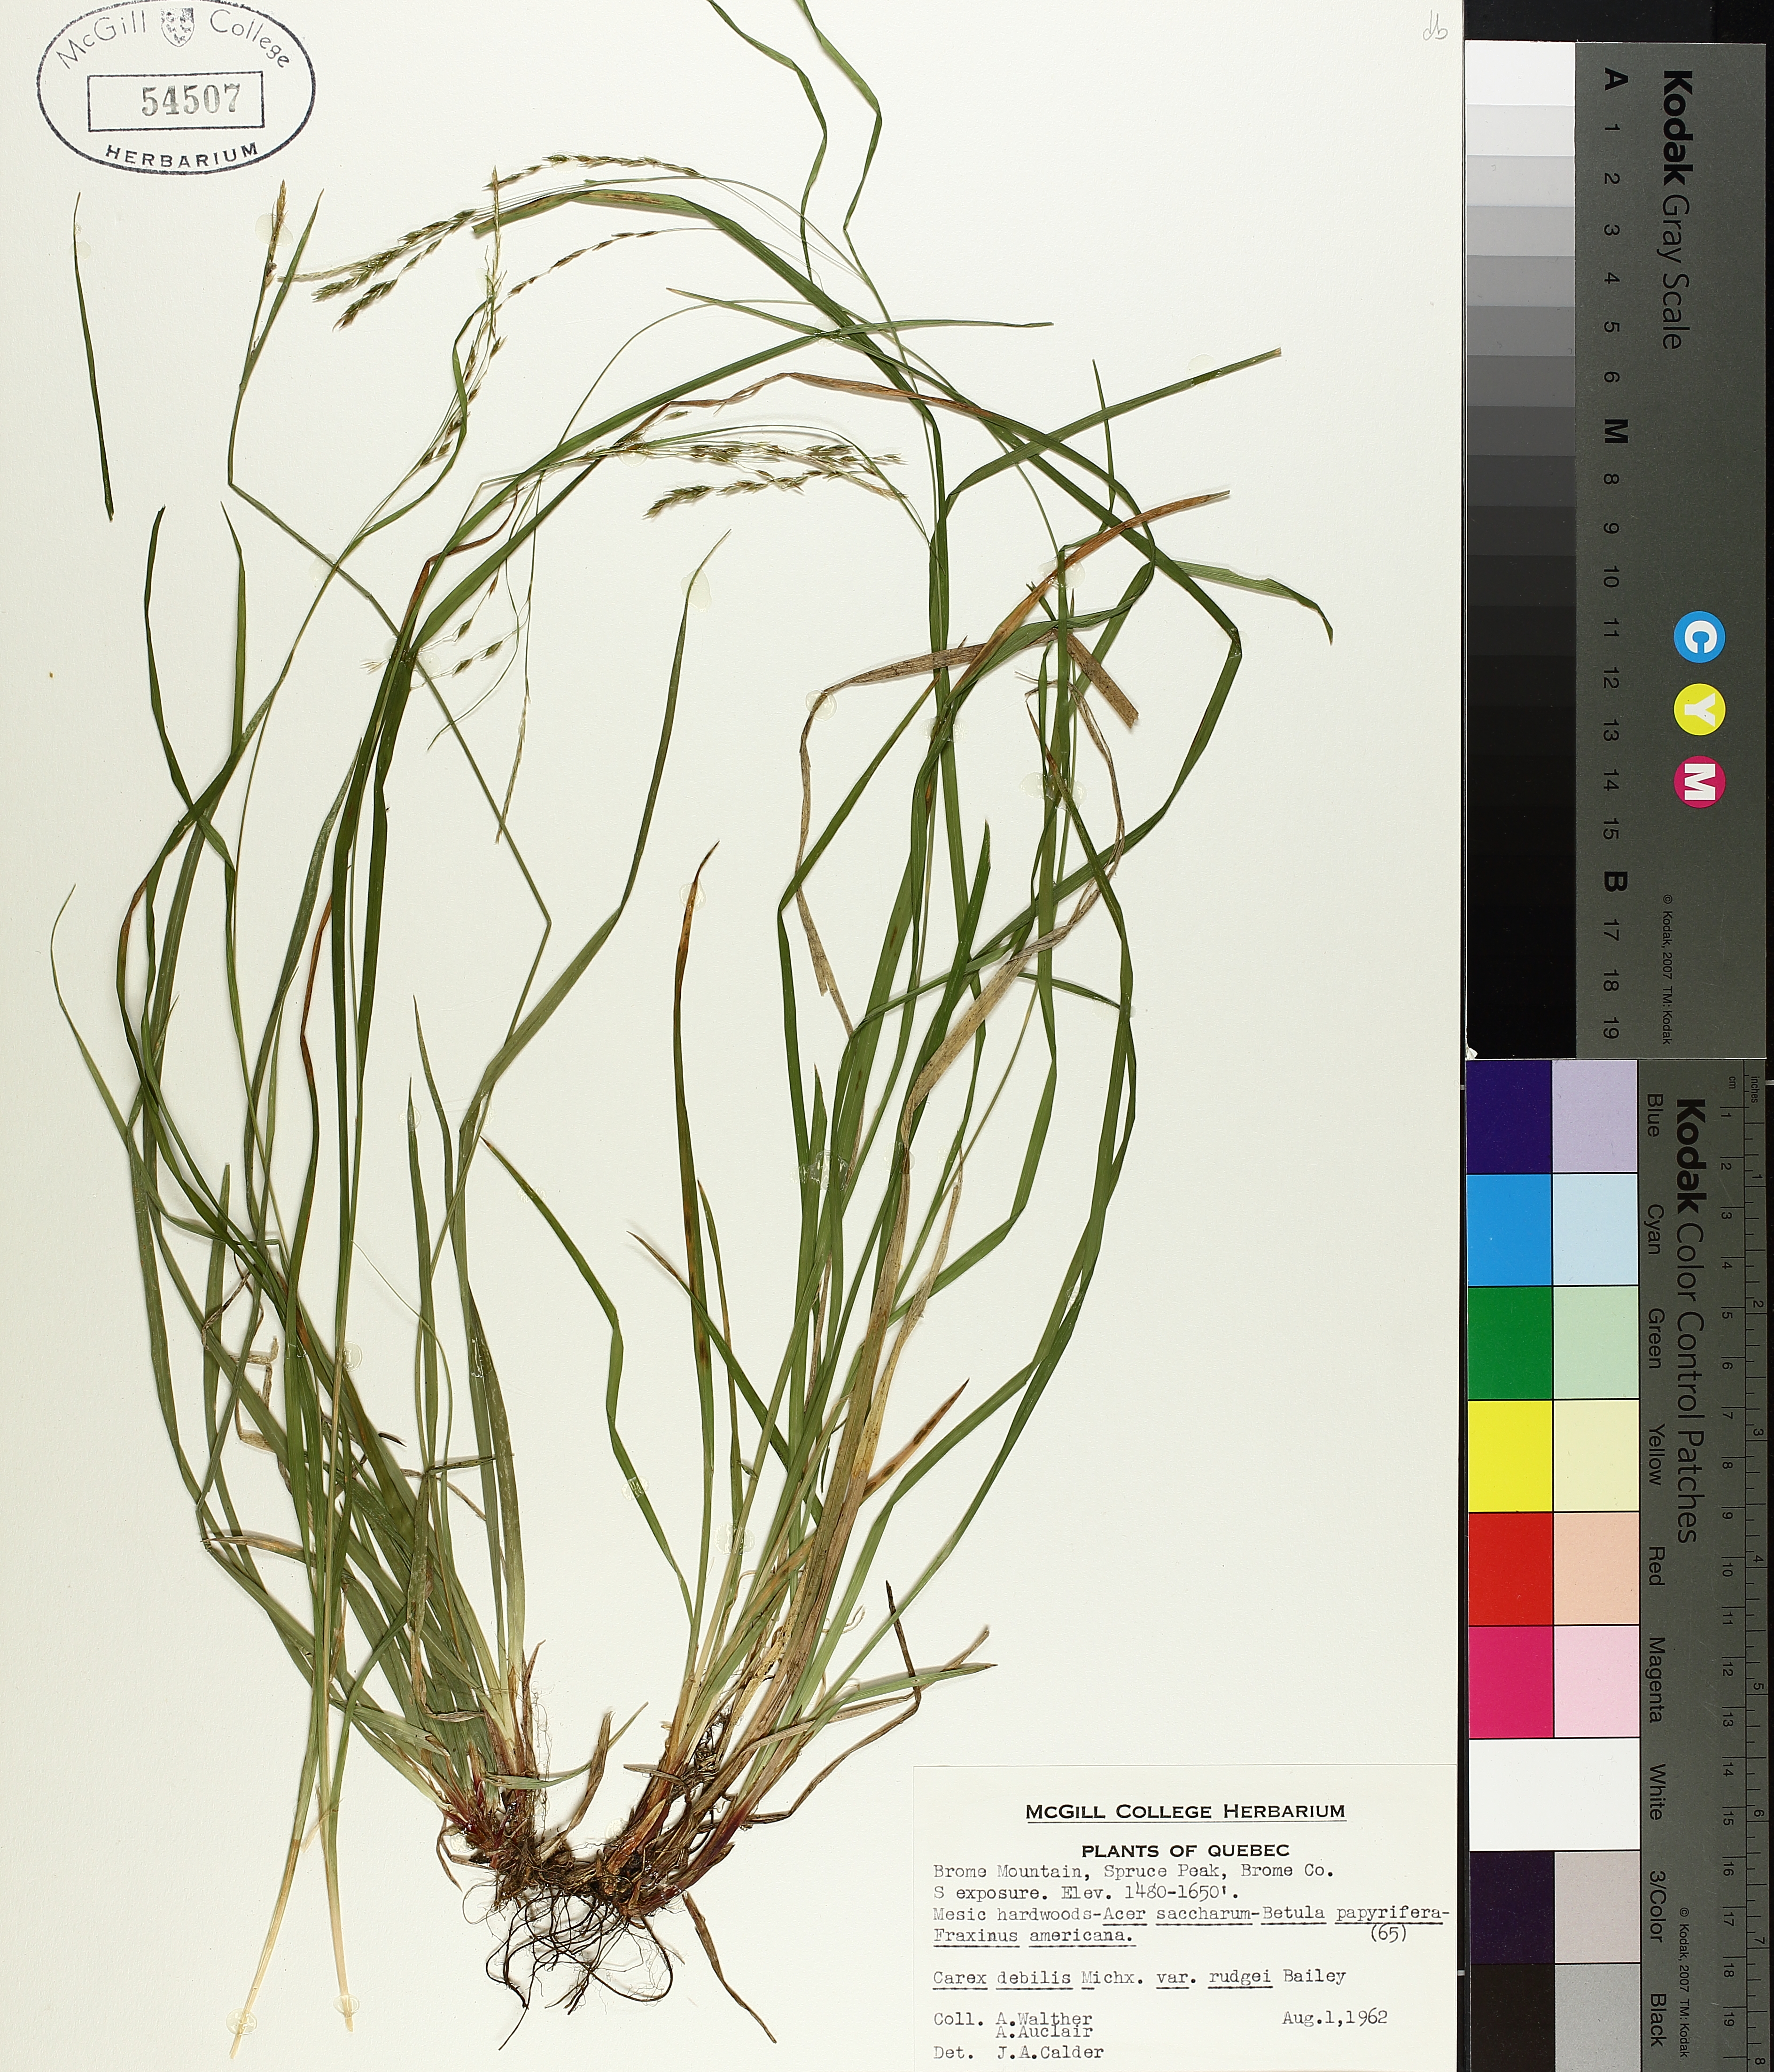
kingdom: Plantae
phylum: Tracheophyta
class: Liliopsida
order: Poales
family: Cyperaceae
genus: Carex
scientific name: Carex debilis
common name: White-edge sedge
